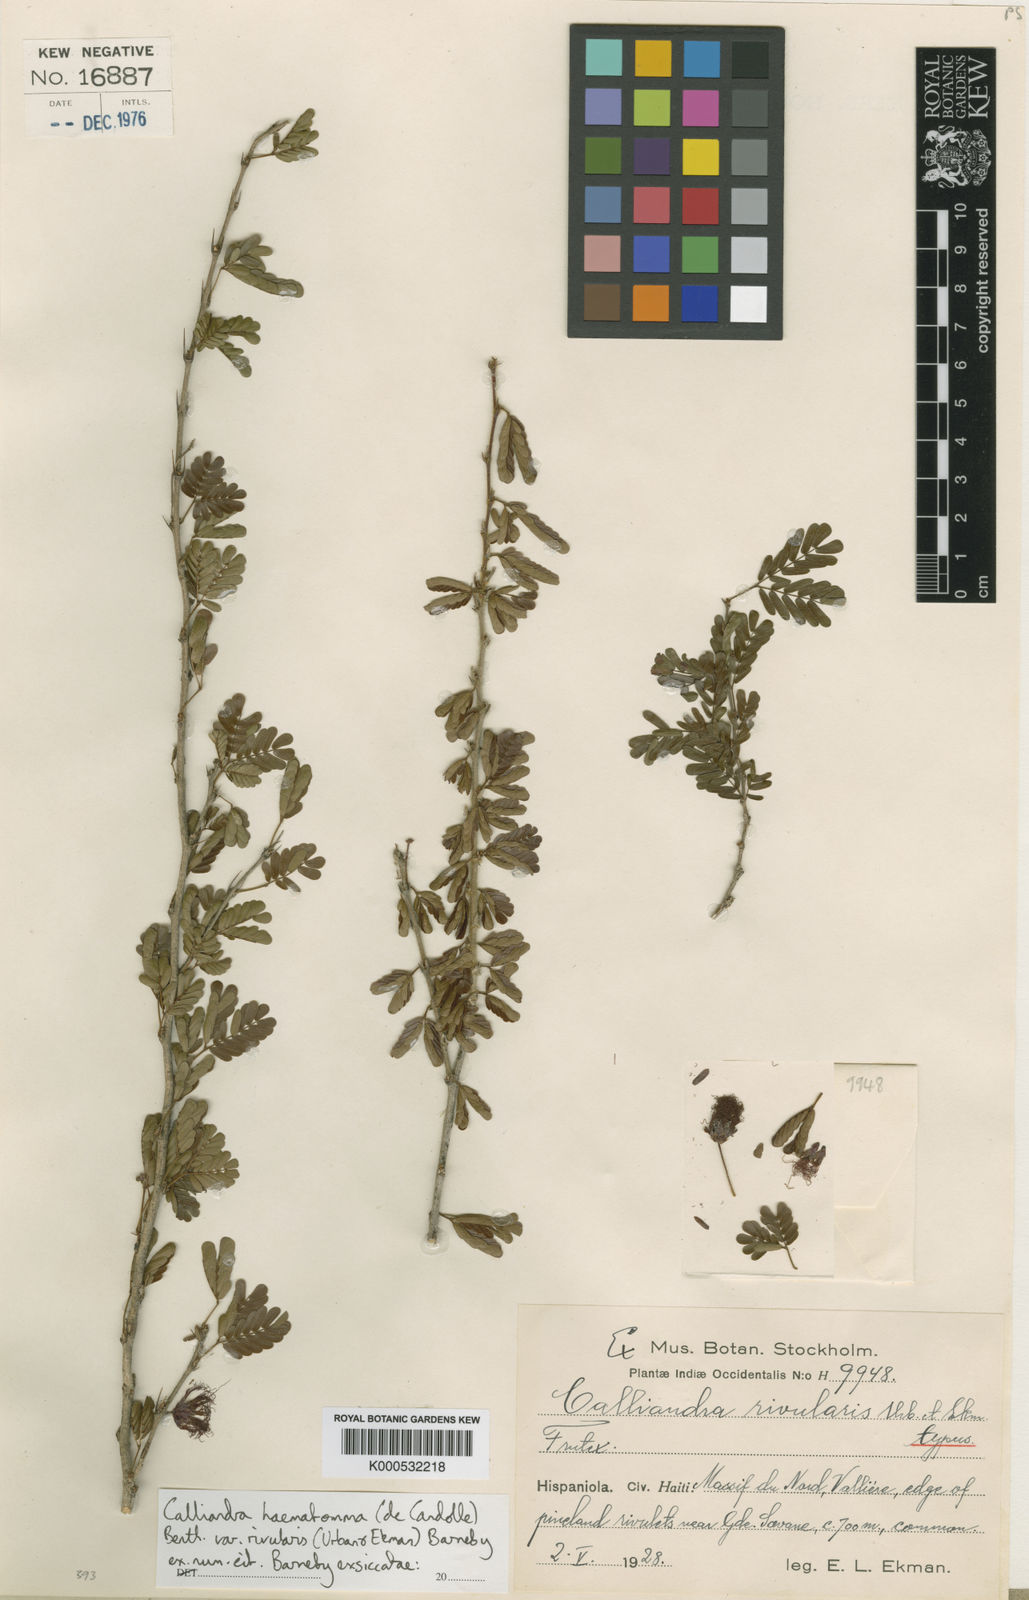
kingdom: Plantae
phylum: Tracheophyta
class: Magnoliopsida
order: Fabales
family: Fabaceae
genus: Calliandra
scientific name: Calliandra haematomma
